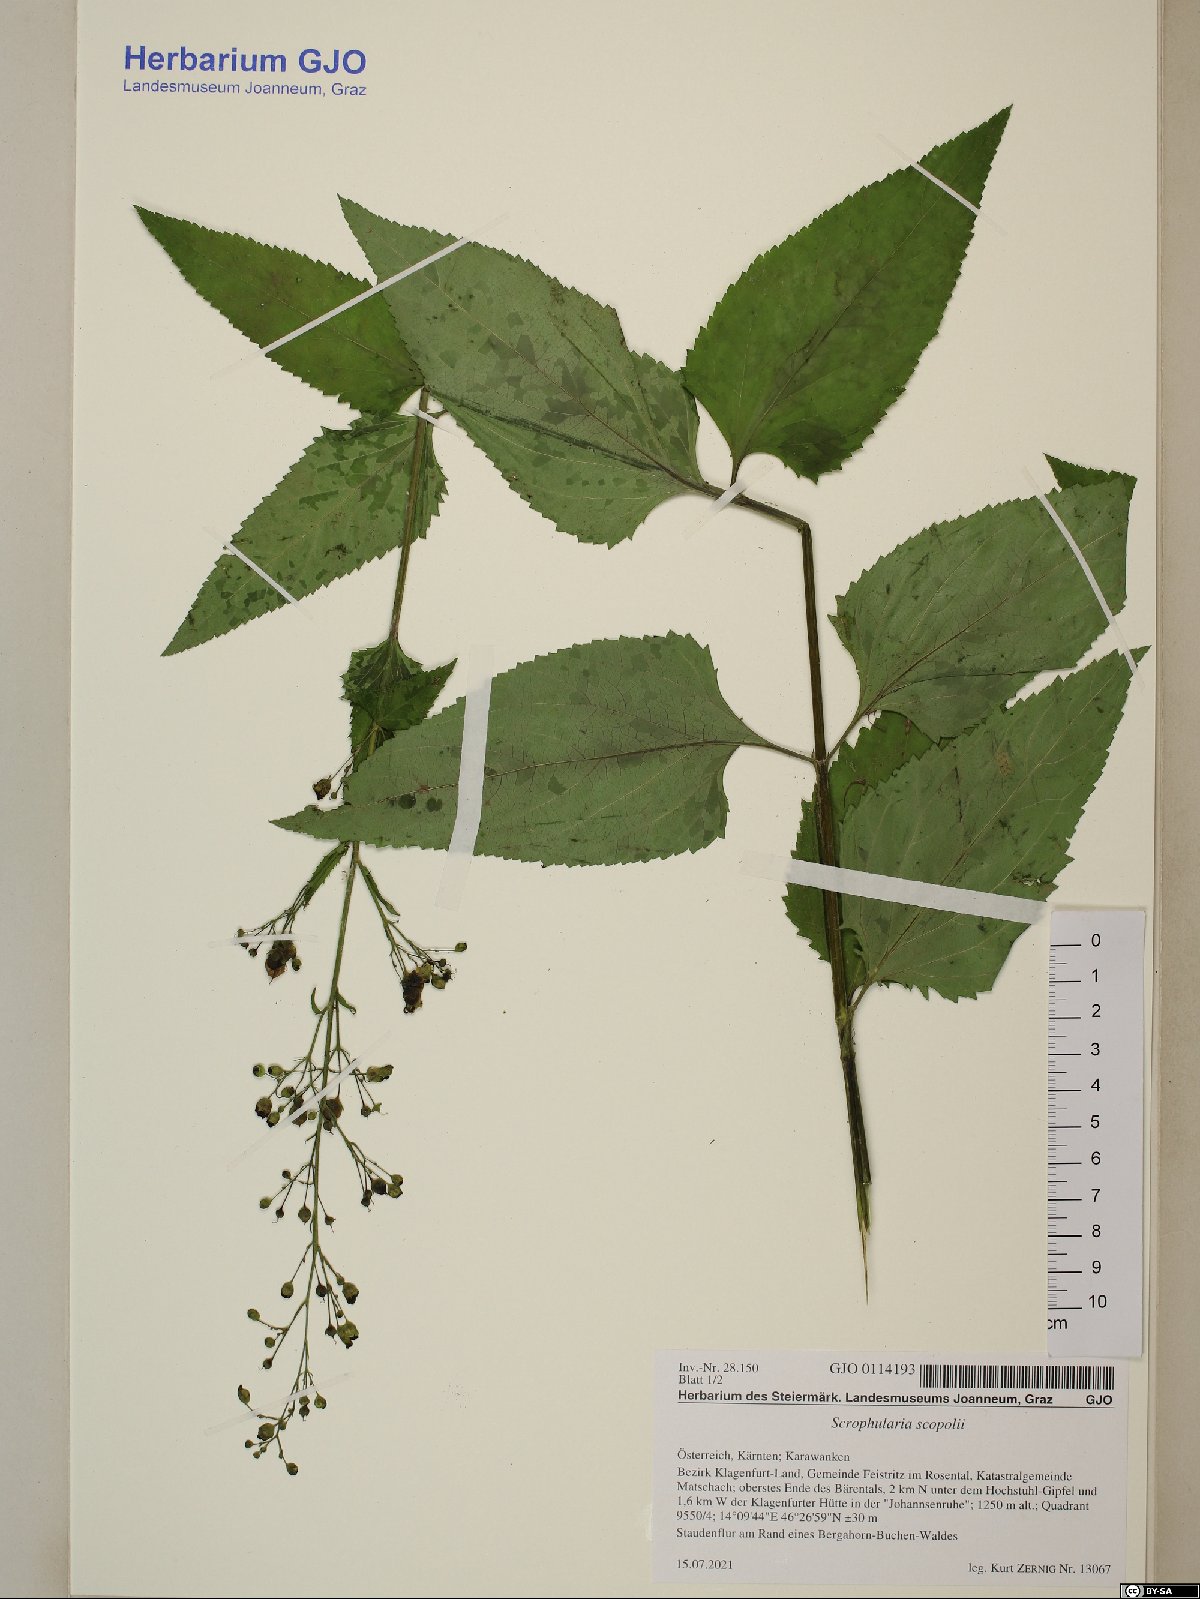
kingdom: Plantae
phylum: Tracheophyta
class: Magnoliopsida
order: Lamiales
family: Scrophulariaceae
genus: Scrophularia
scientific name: Scrophularia scopolii
